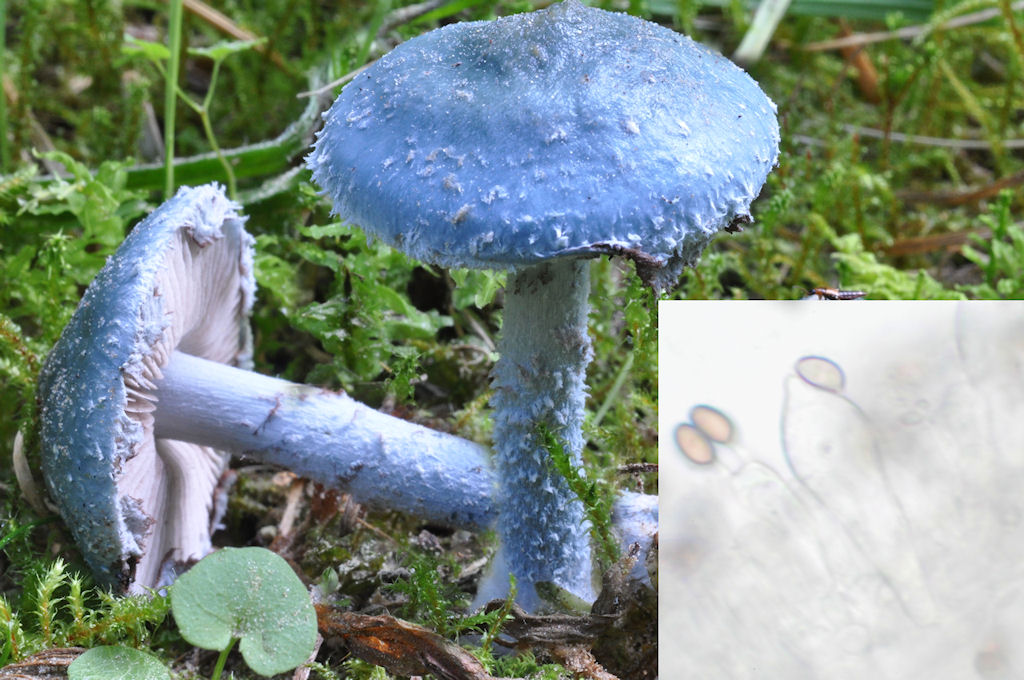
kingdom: Fungi
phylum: Basidiomycota
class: Agaricomycetes
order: Agaricales
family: Strophariaceae
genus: Stropharia
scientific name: Stropharia cyanea
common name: blågrøn bredblad
